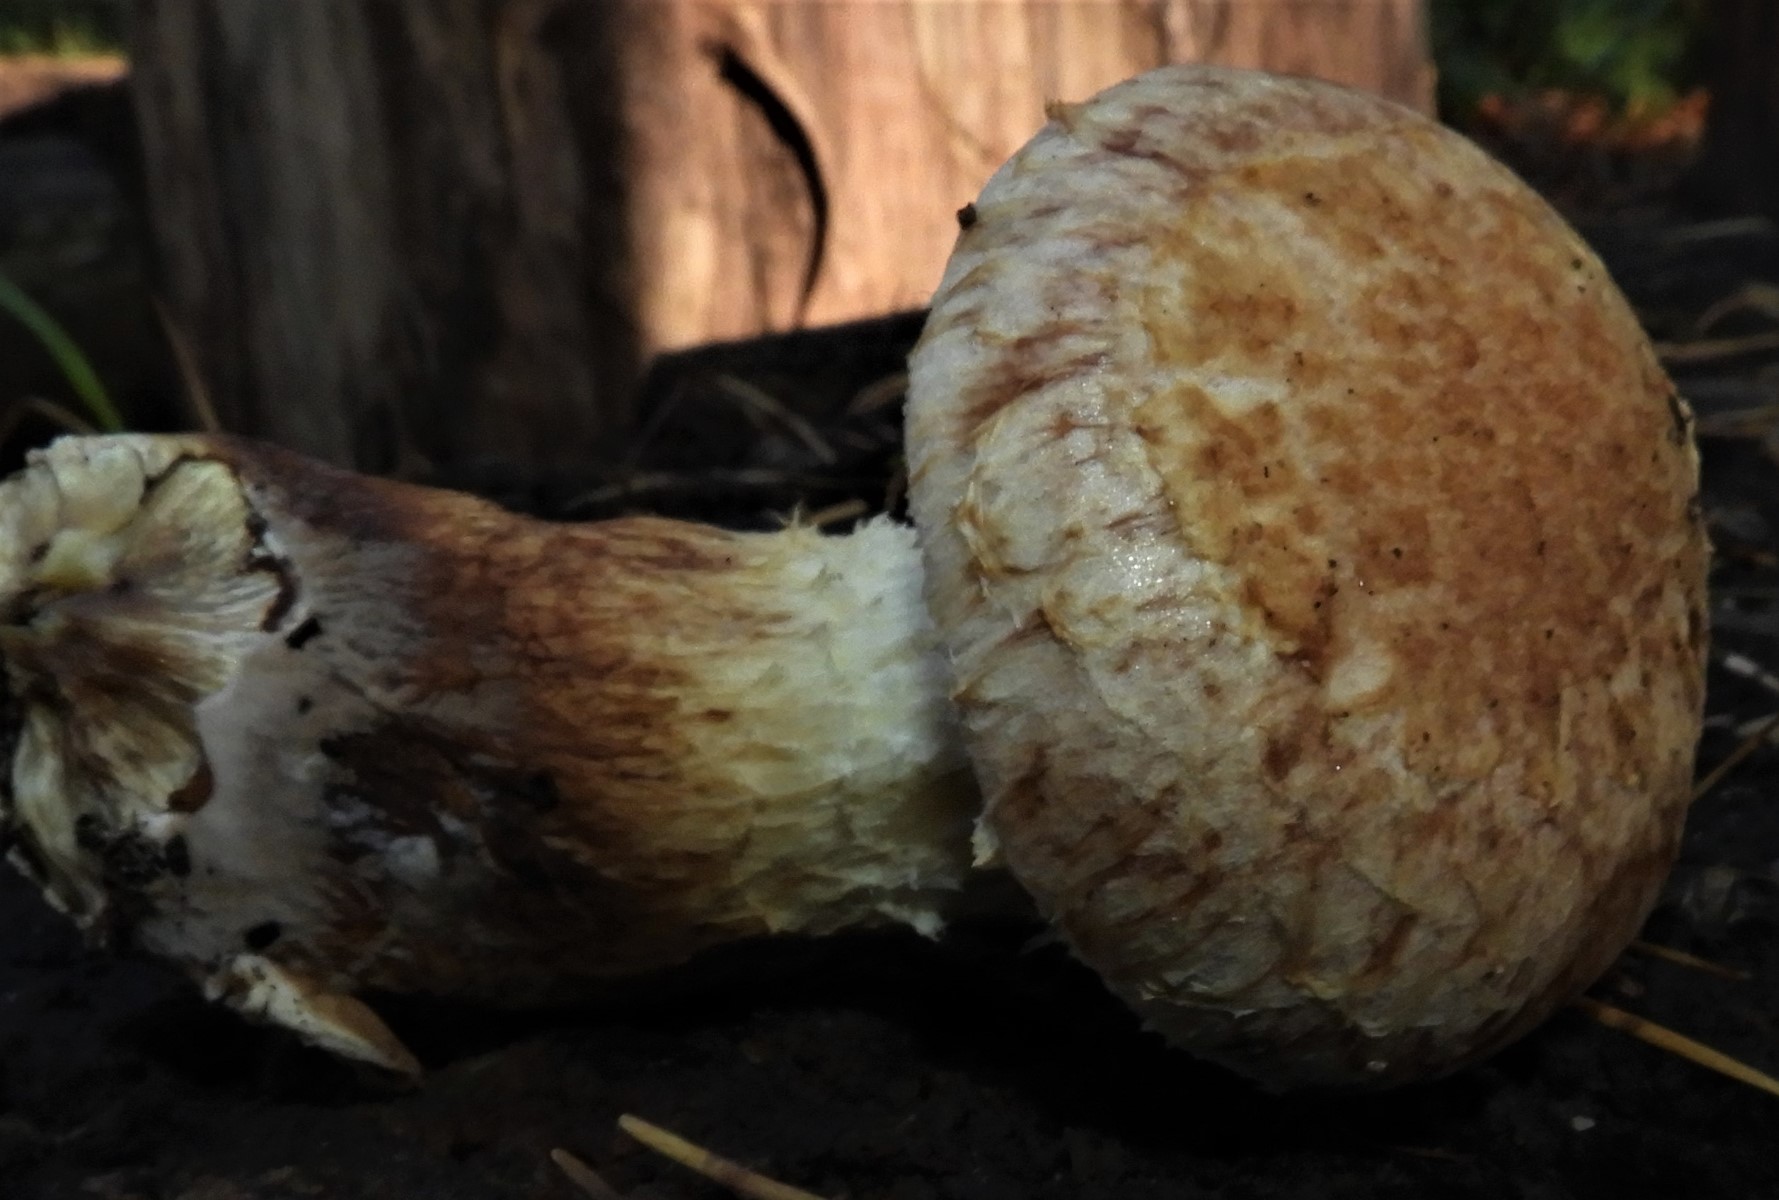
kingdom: Fungi
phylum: Basidiomycota
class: Agaricomycetes
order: Agaricales
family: Strophariaceae
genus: Pholiota
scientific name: Pholiota populnea
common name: poppel-kæmpeskælhat
